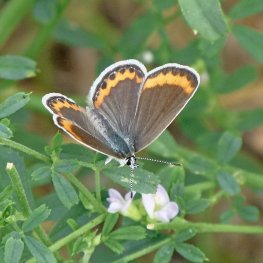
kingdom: Animalia
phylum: Arthropoda
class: Insecta
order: Lepidoptera
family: Lycaenidae
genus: Lycaeides
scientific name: Lycaeides melissa
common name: Melissa Blue
